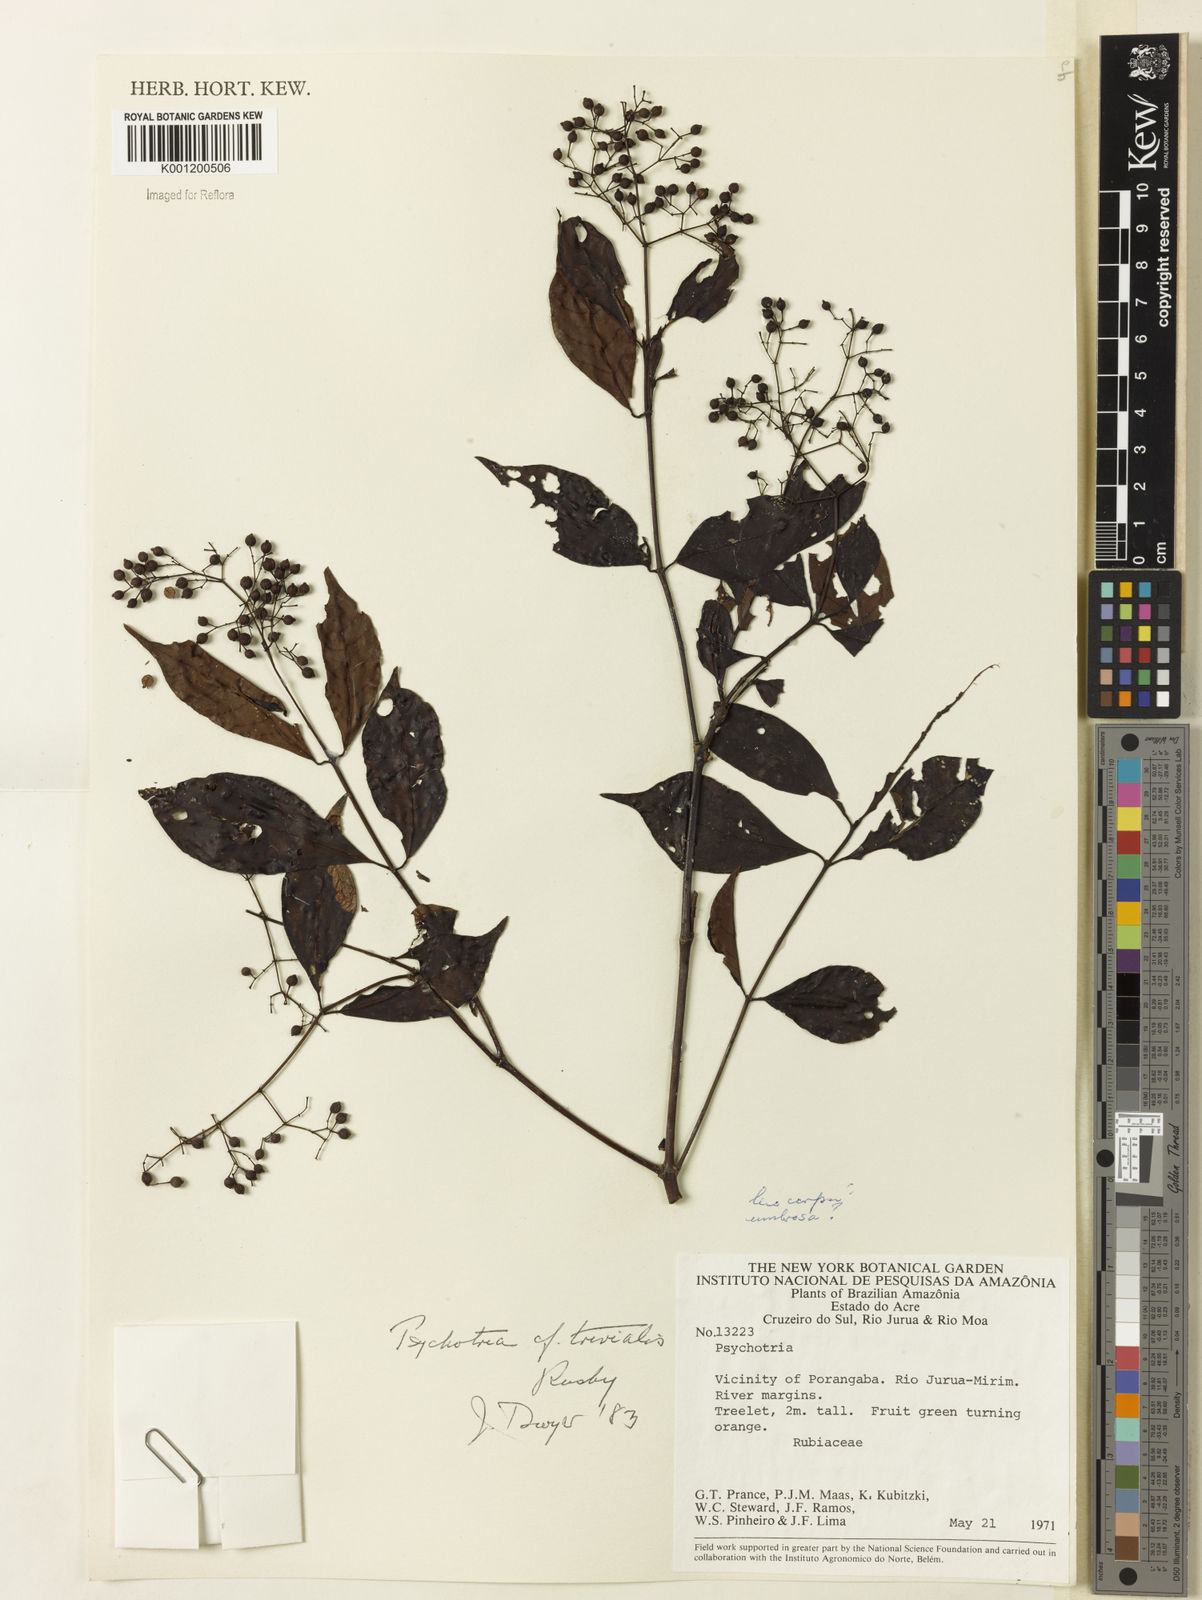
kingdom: Plantae
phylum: Tracheophyta
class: Magnoliopsida
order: Gentianales
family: Rubiaceae
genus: Psychotria
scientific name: Psychotria trivialis
